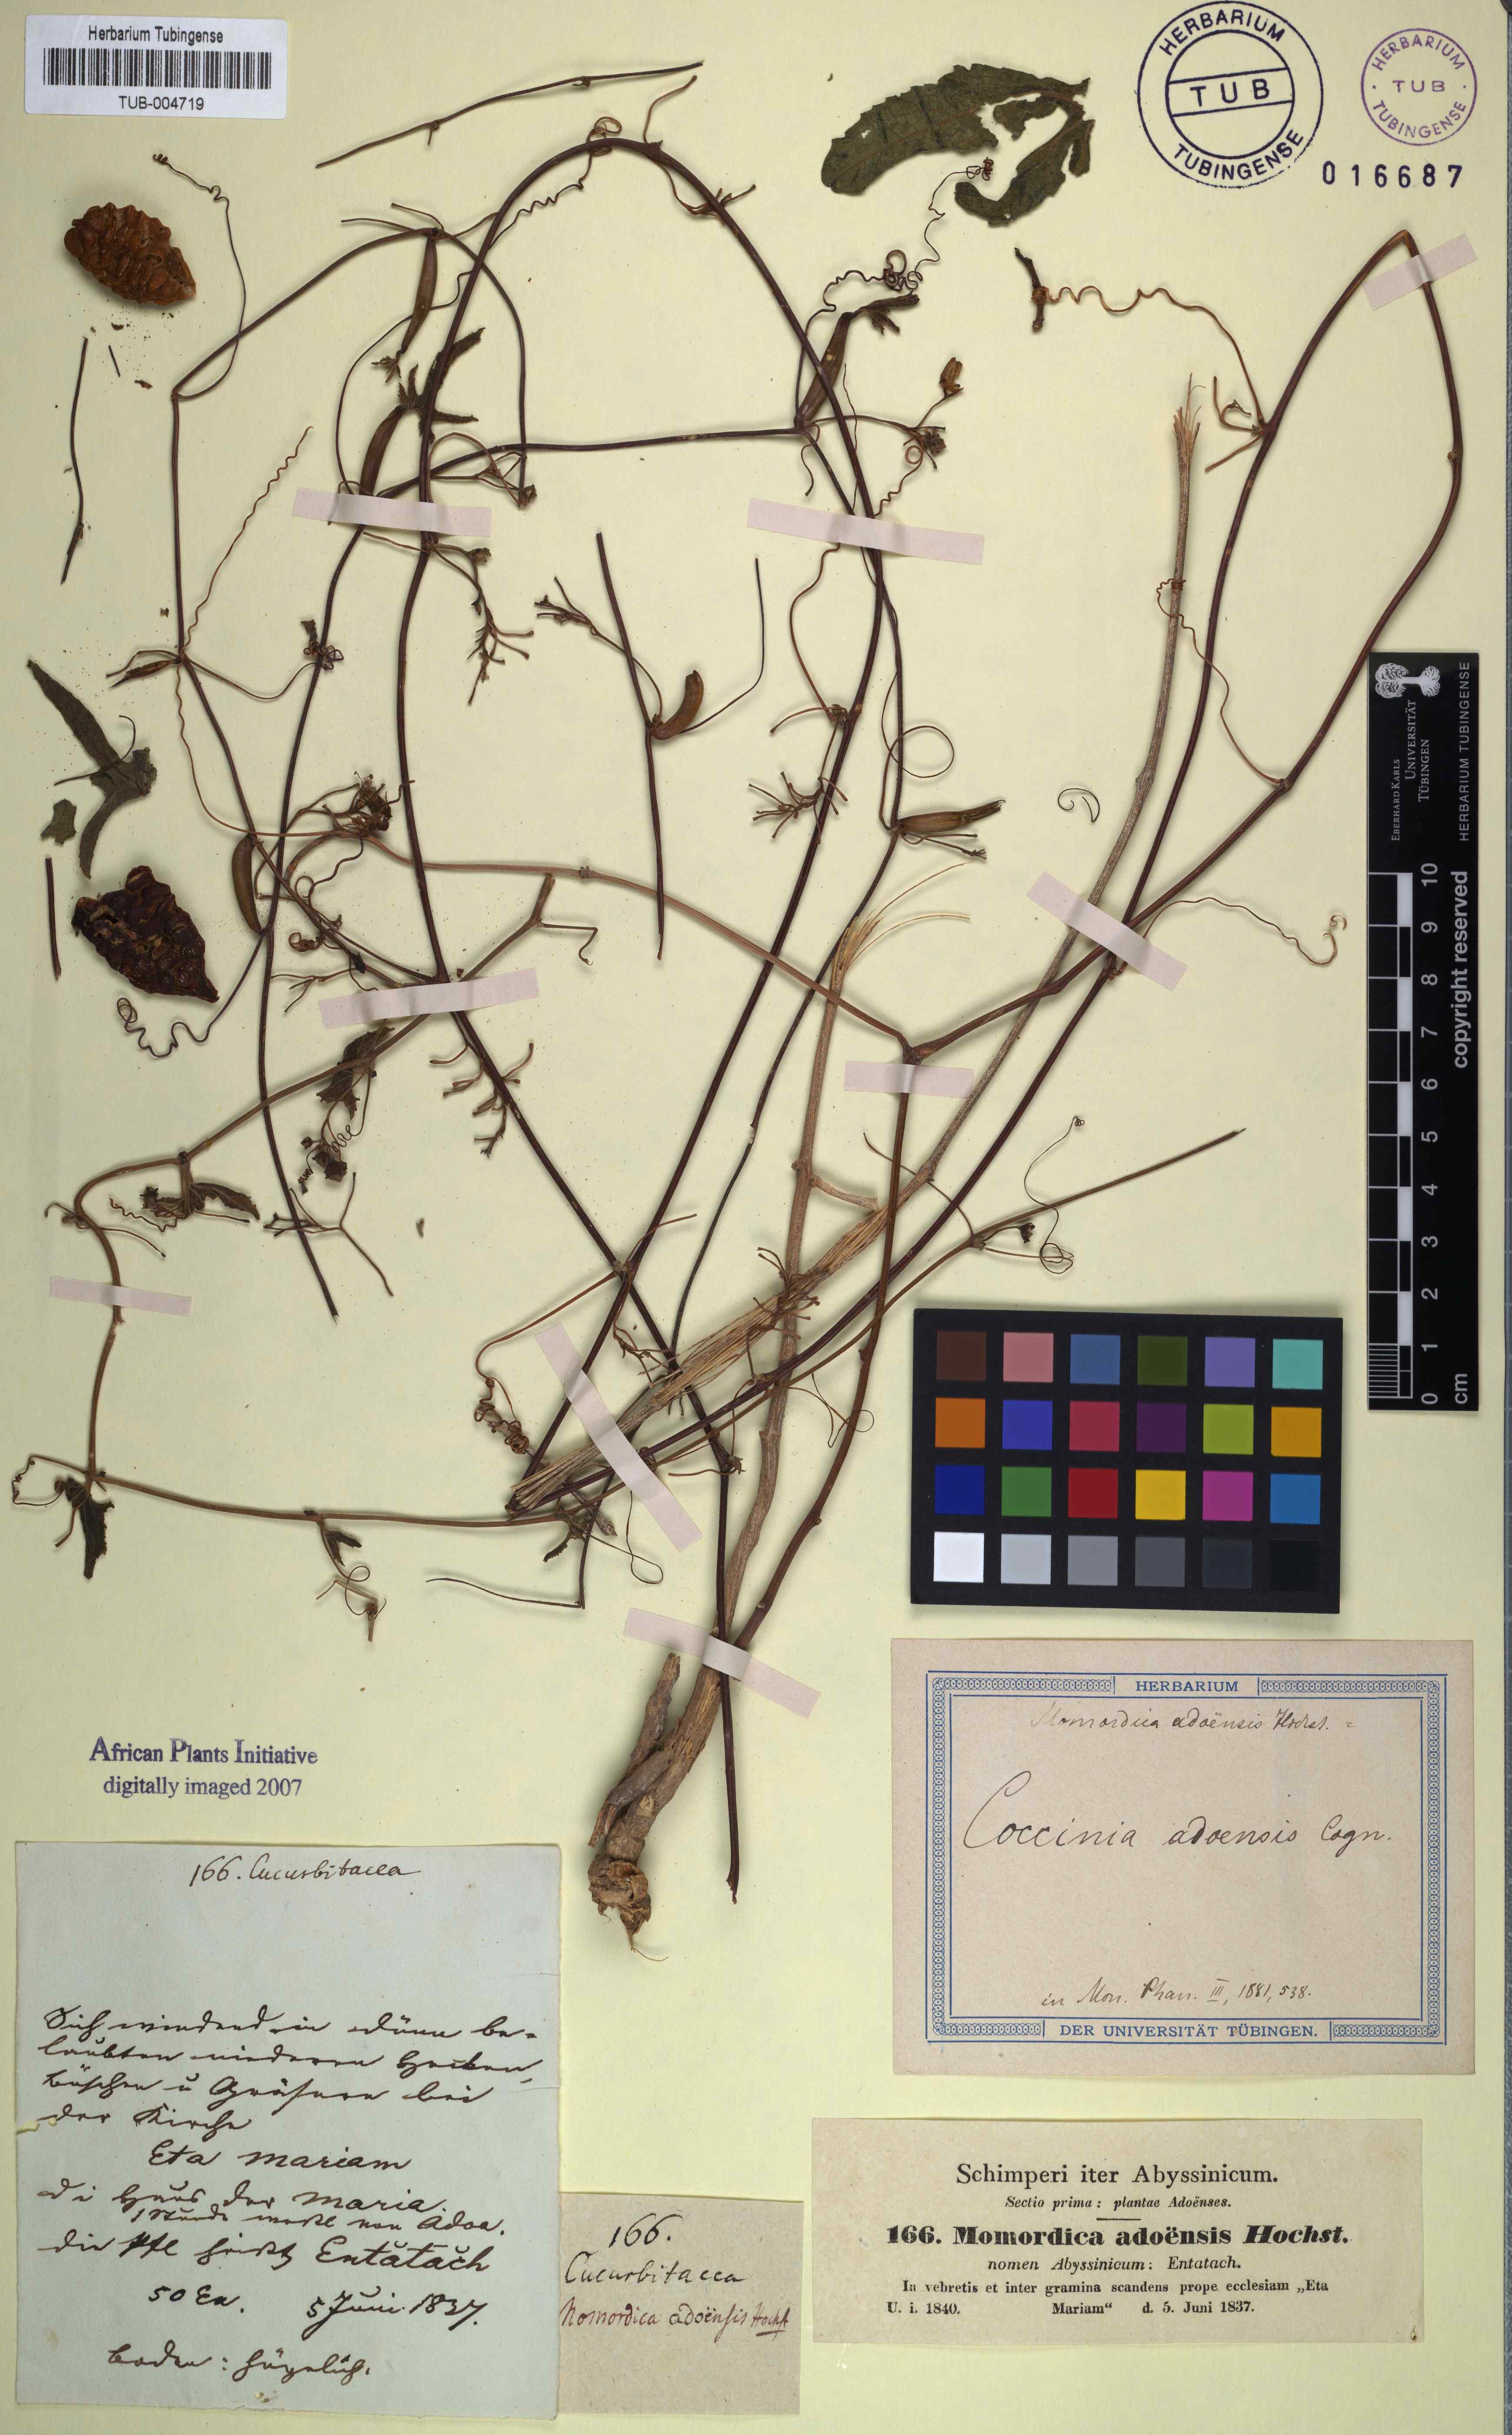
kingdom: Plantae
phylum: Tracheophyta
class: Magnoliopsida
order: Cucurbitales
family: Cucurbitaceae
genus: Coccinia
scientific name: Coccinia adoensis
